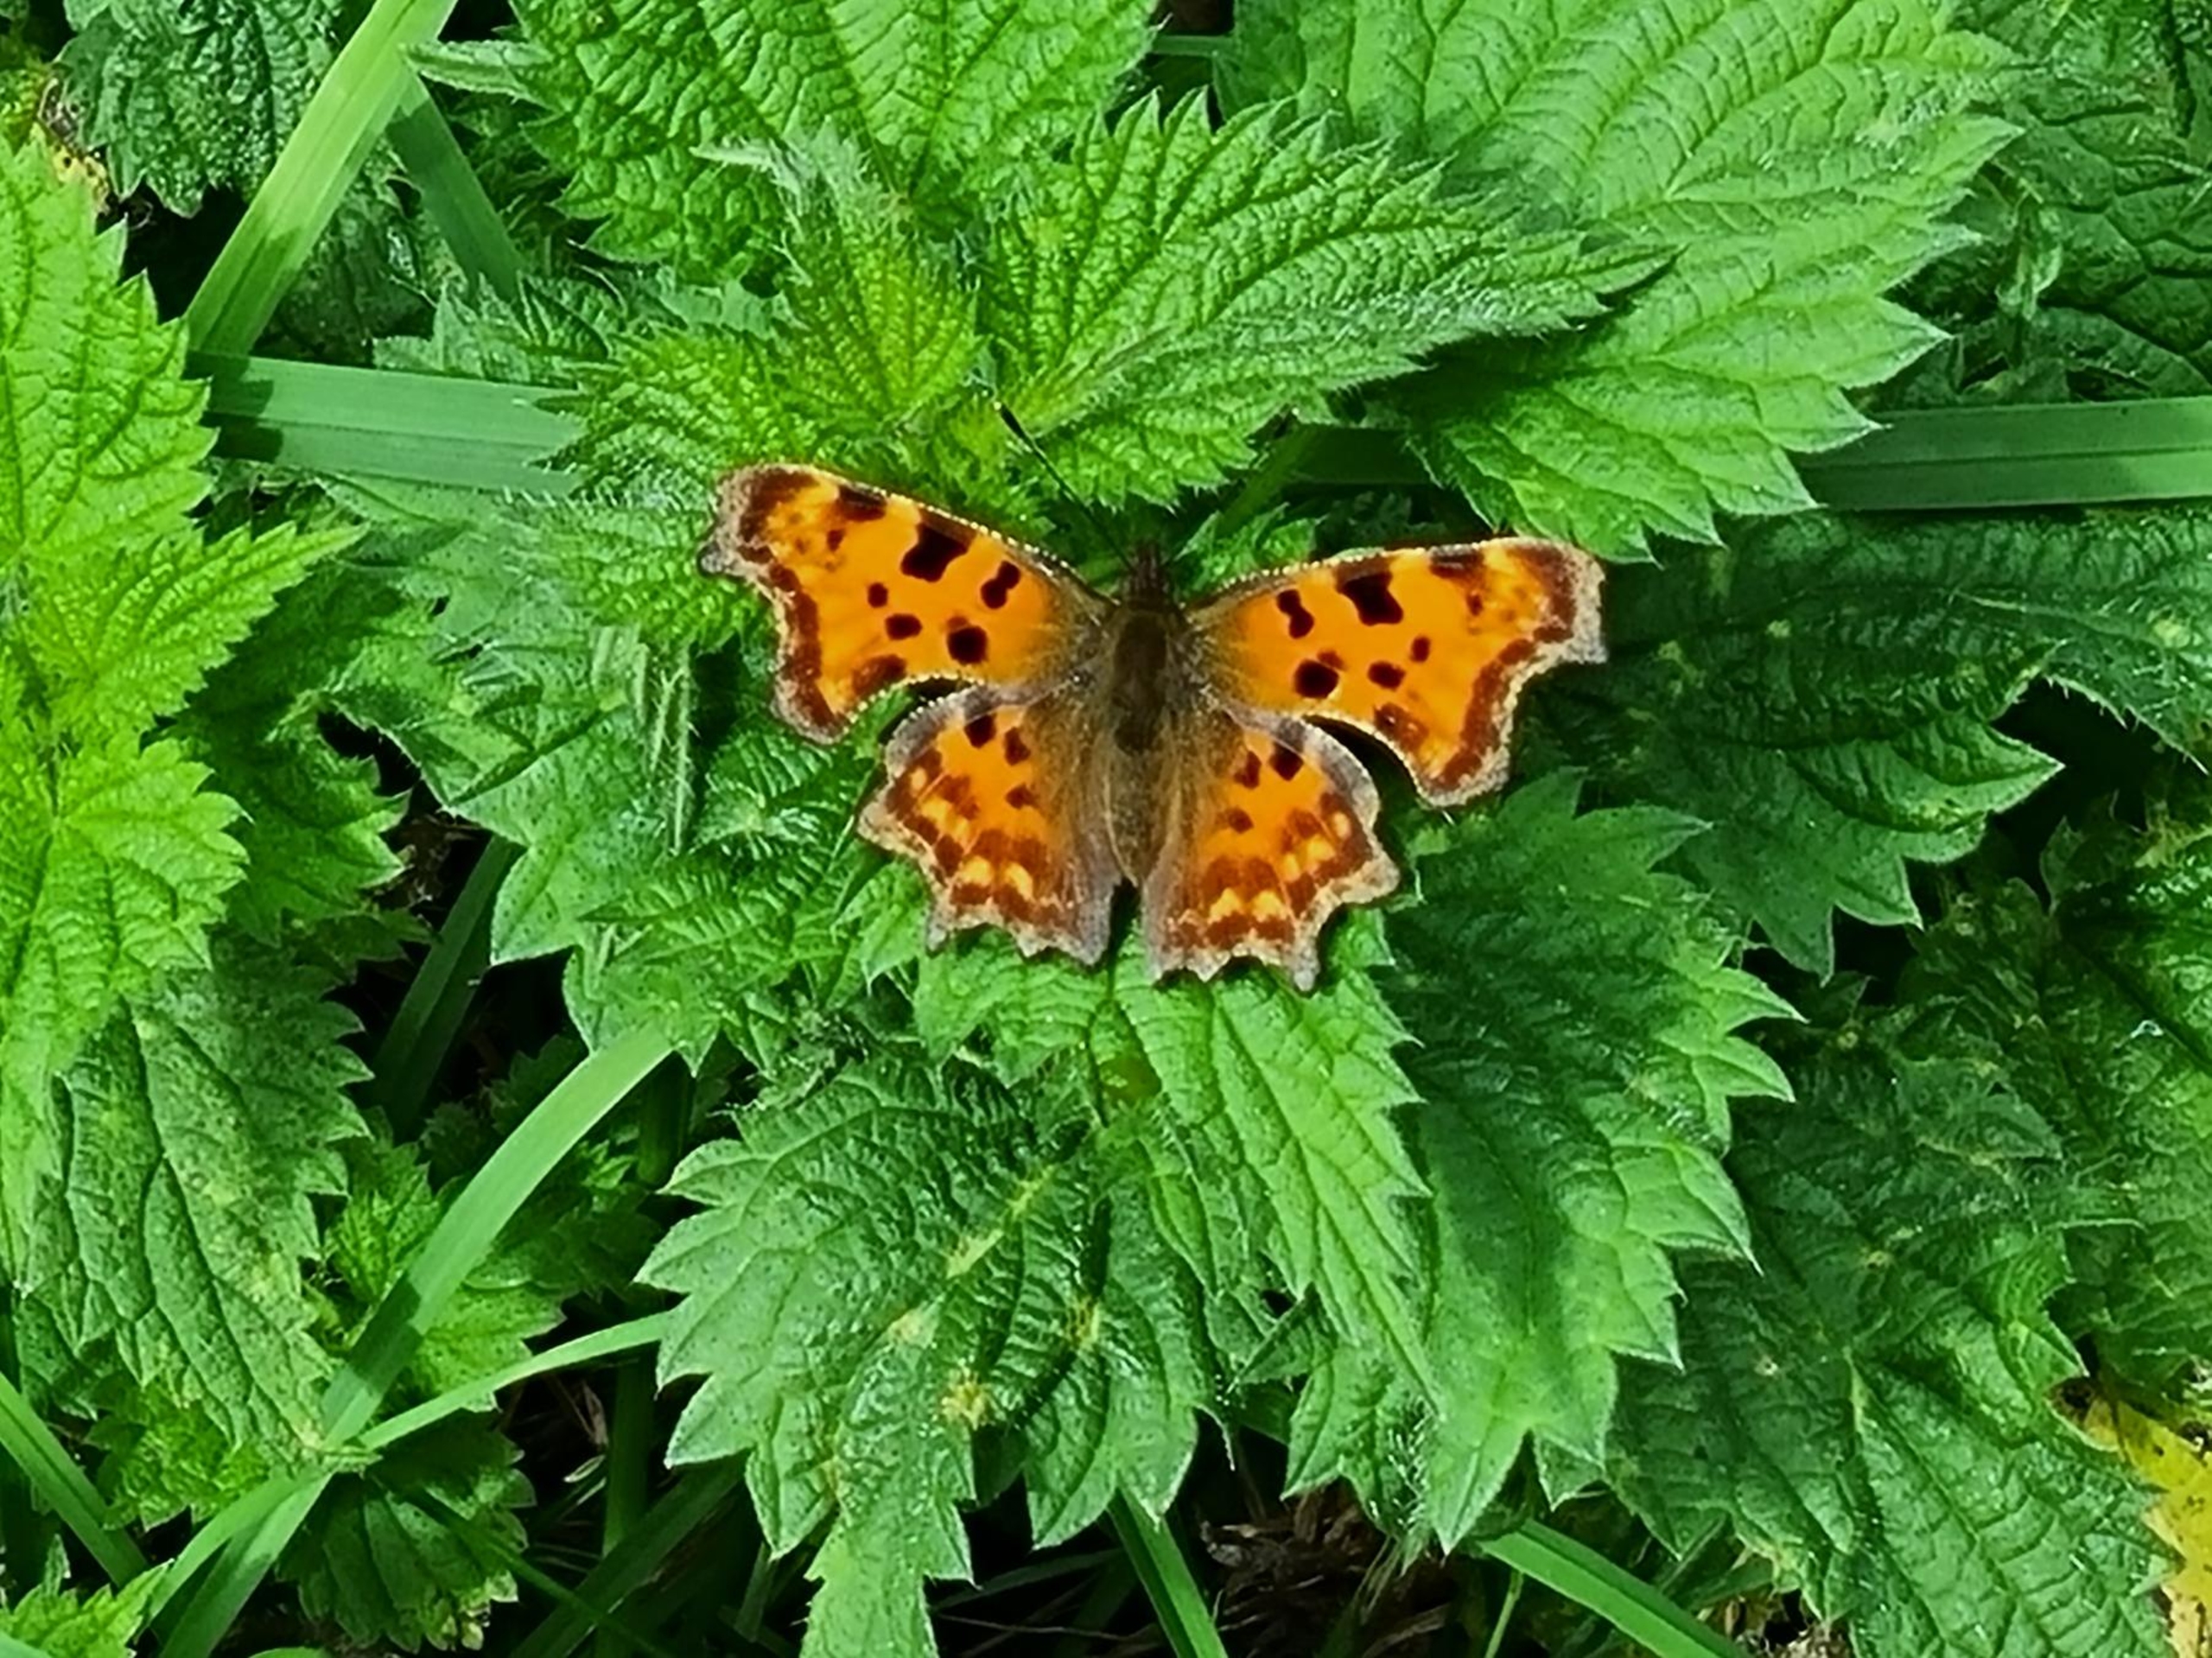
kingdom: Animalia
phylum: Arthropoda
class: Insecta
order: Lepidoptera
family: Nymphalidae
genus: Polygonia
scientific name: Polygonia c-album
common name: Det hvide C
